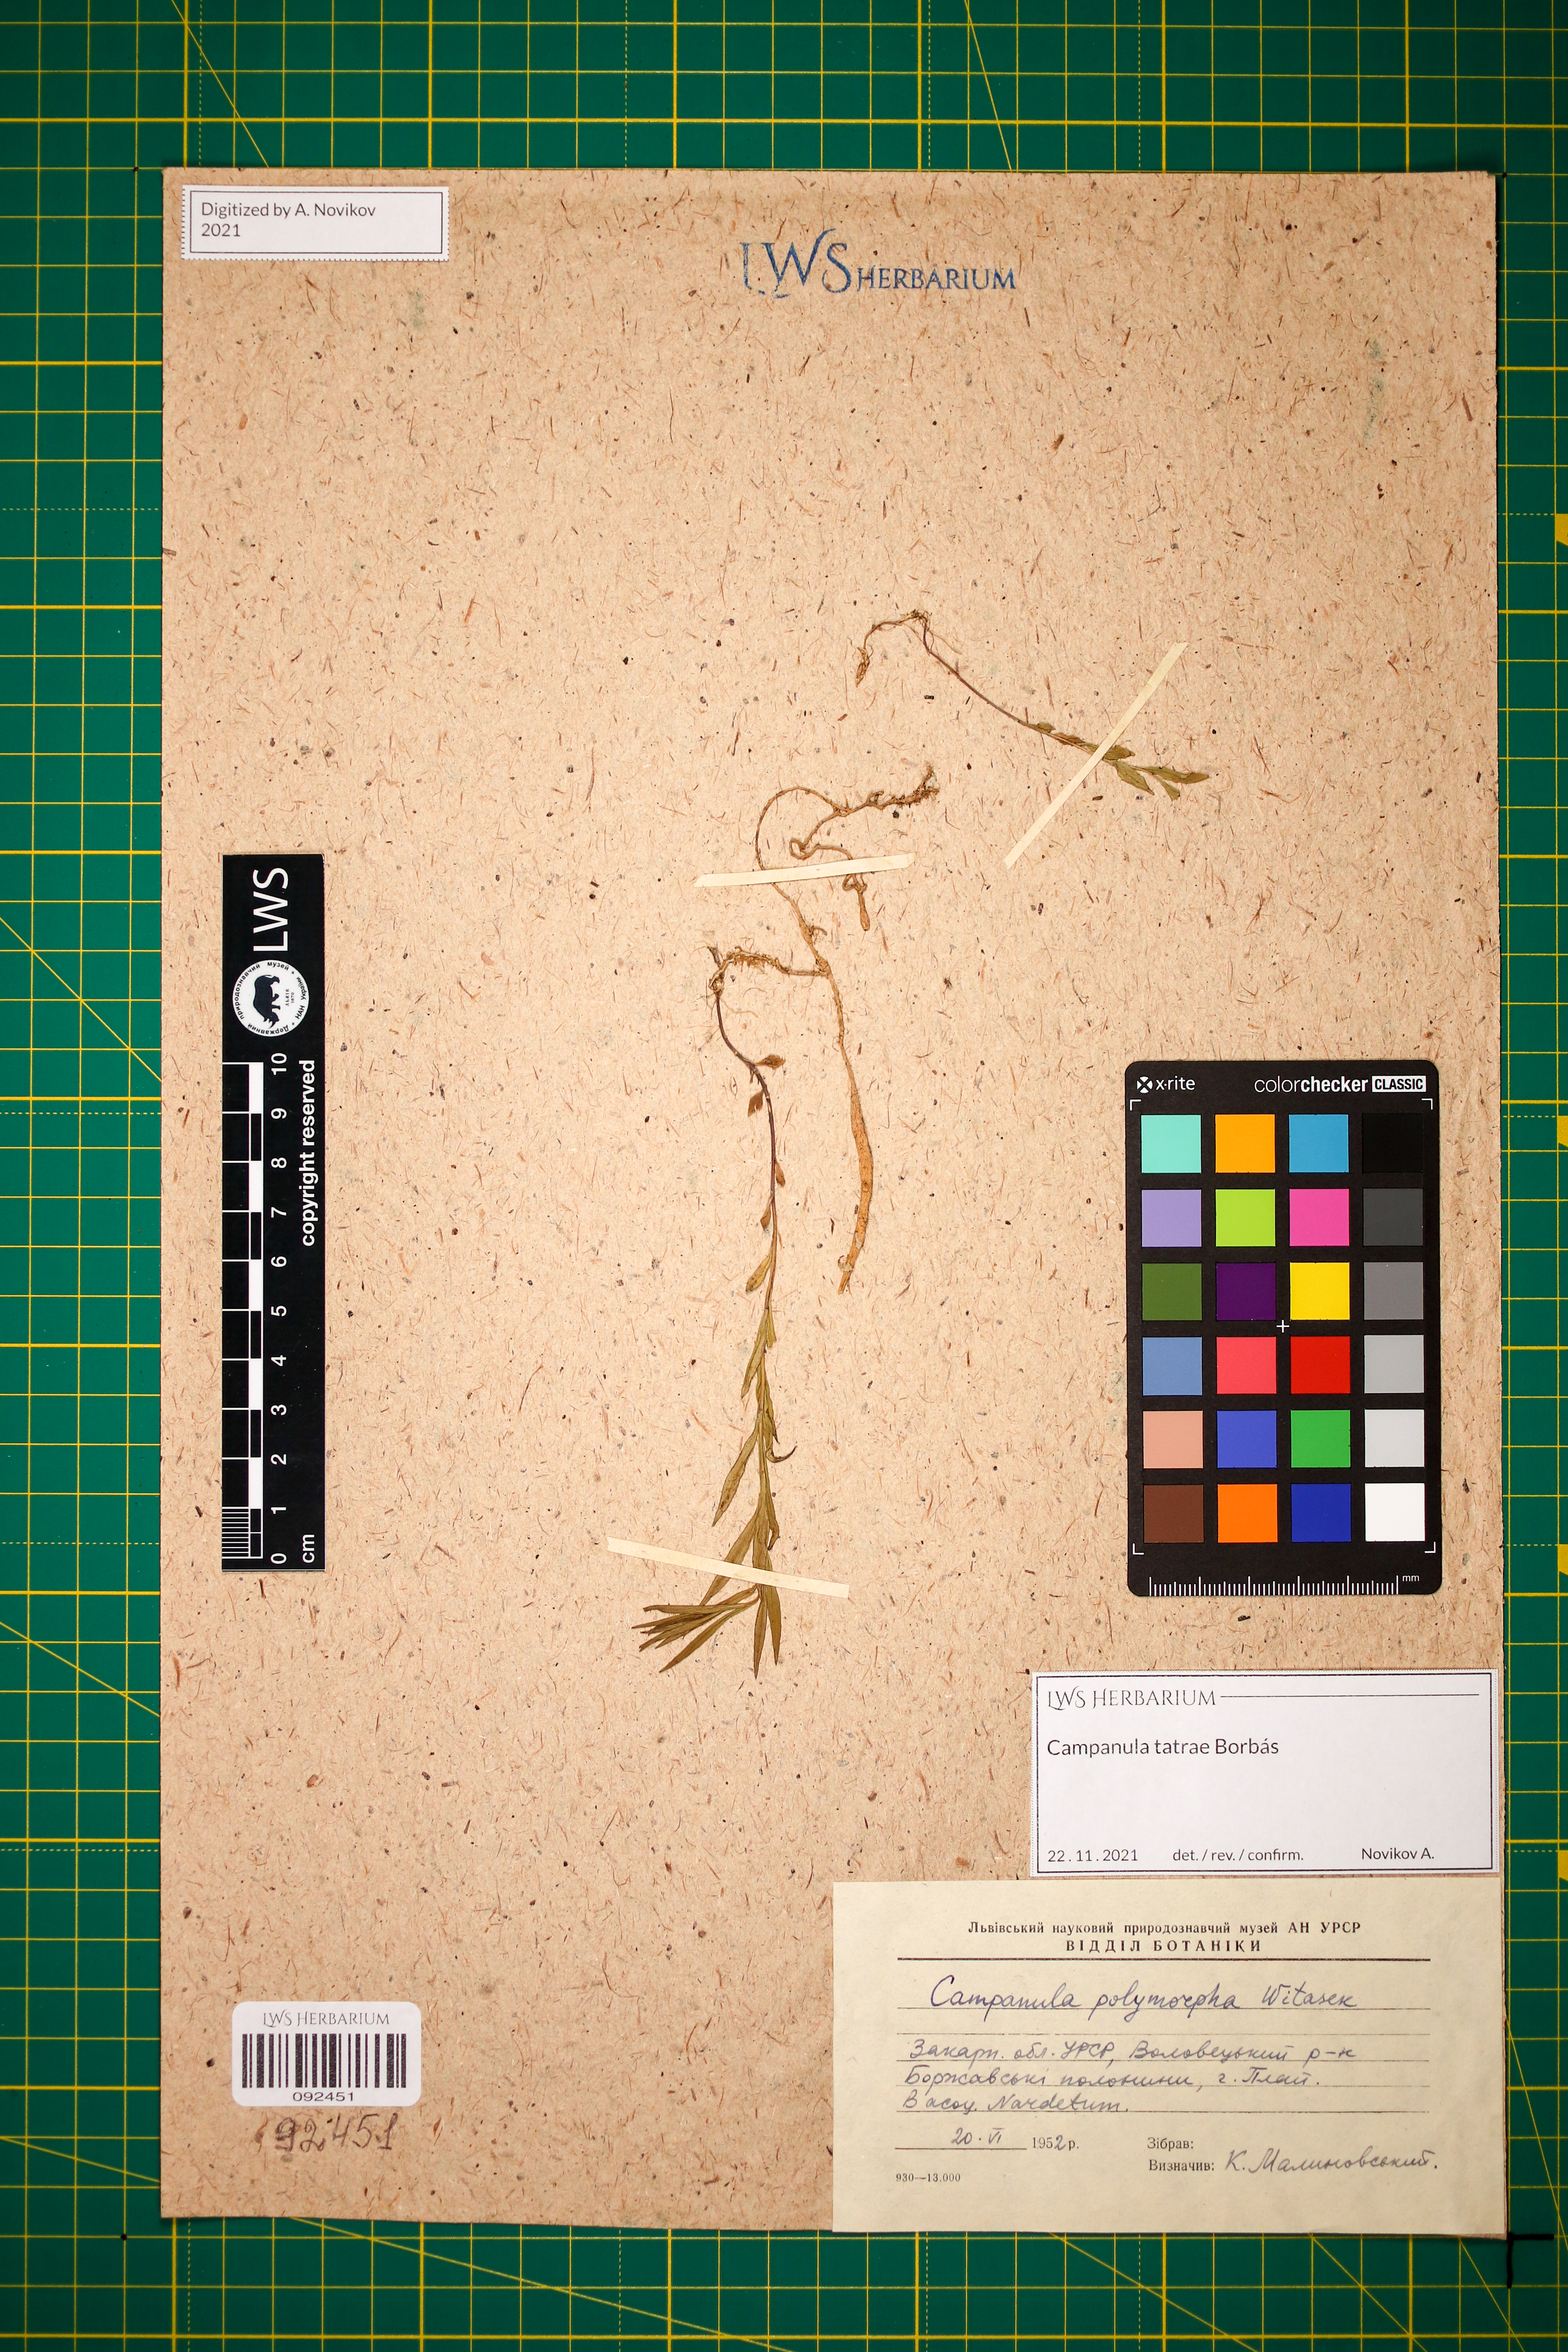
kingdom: Plantae
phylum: Tracheophyta
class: Magnoliopsida
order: Asterales
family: Campanulaceae
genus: Campanula
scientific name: Campanula tatrae
